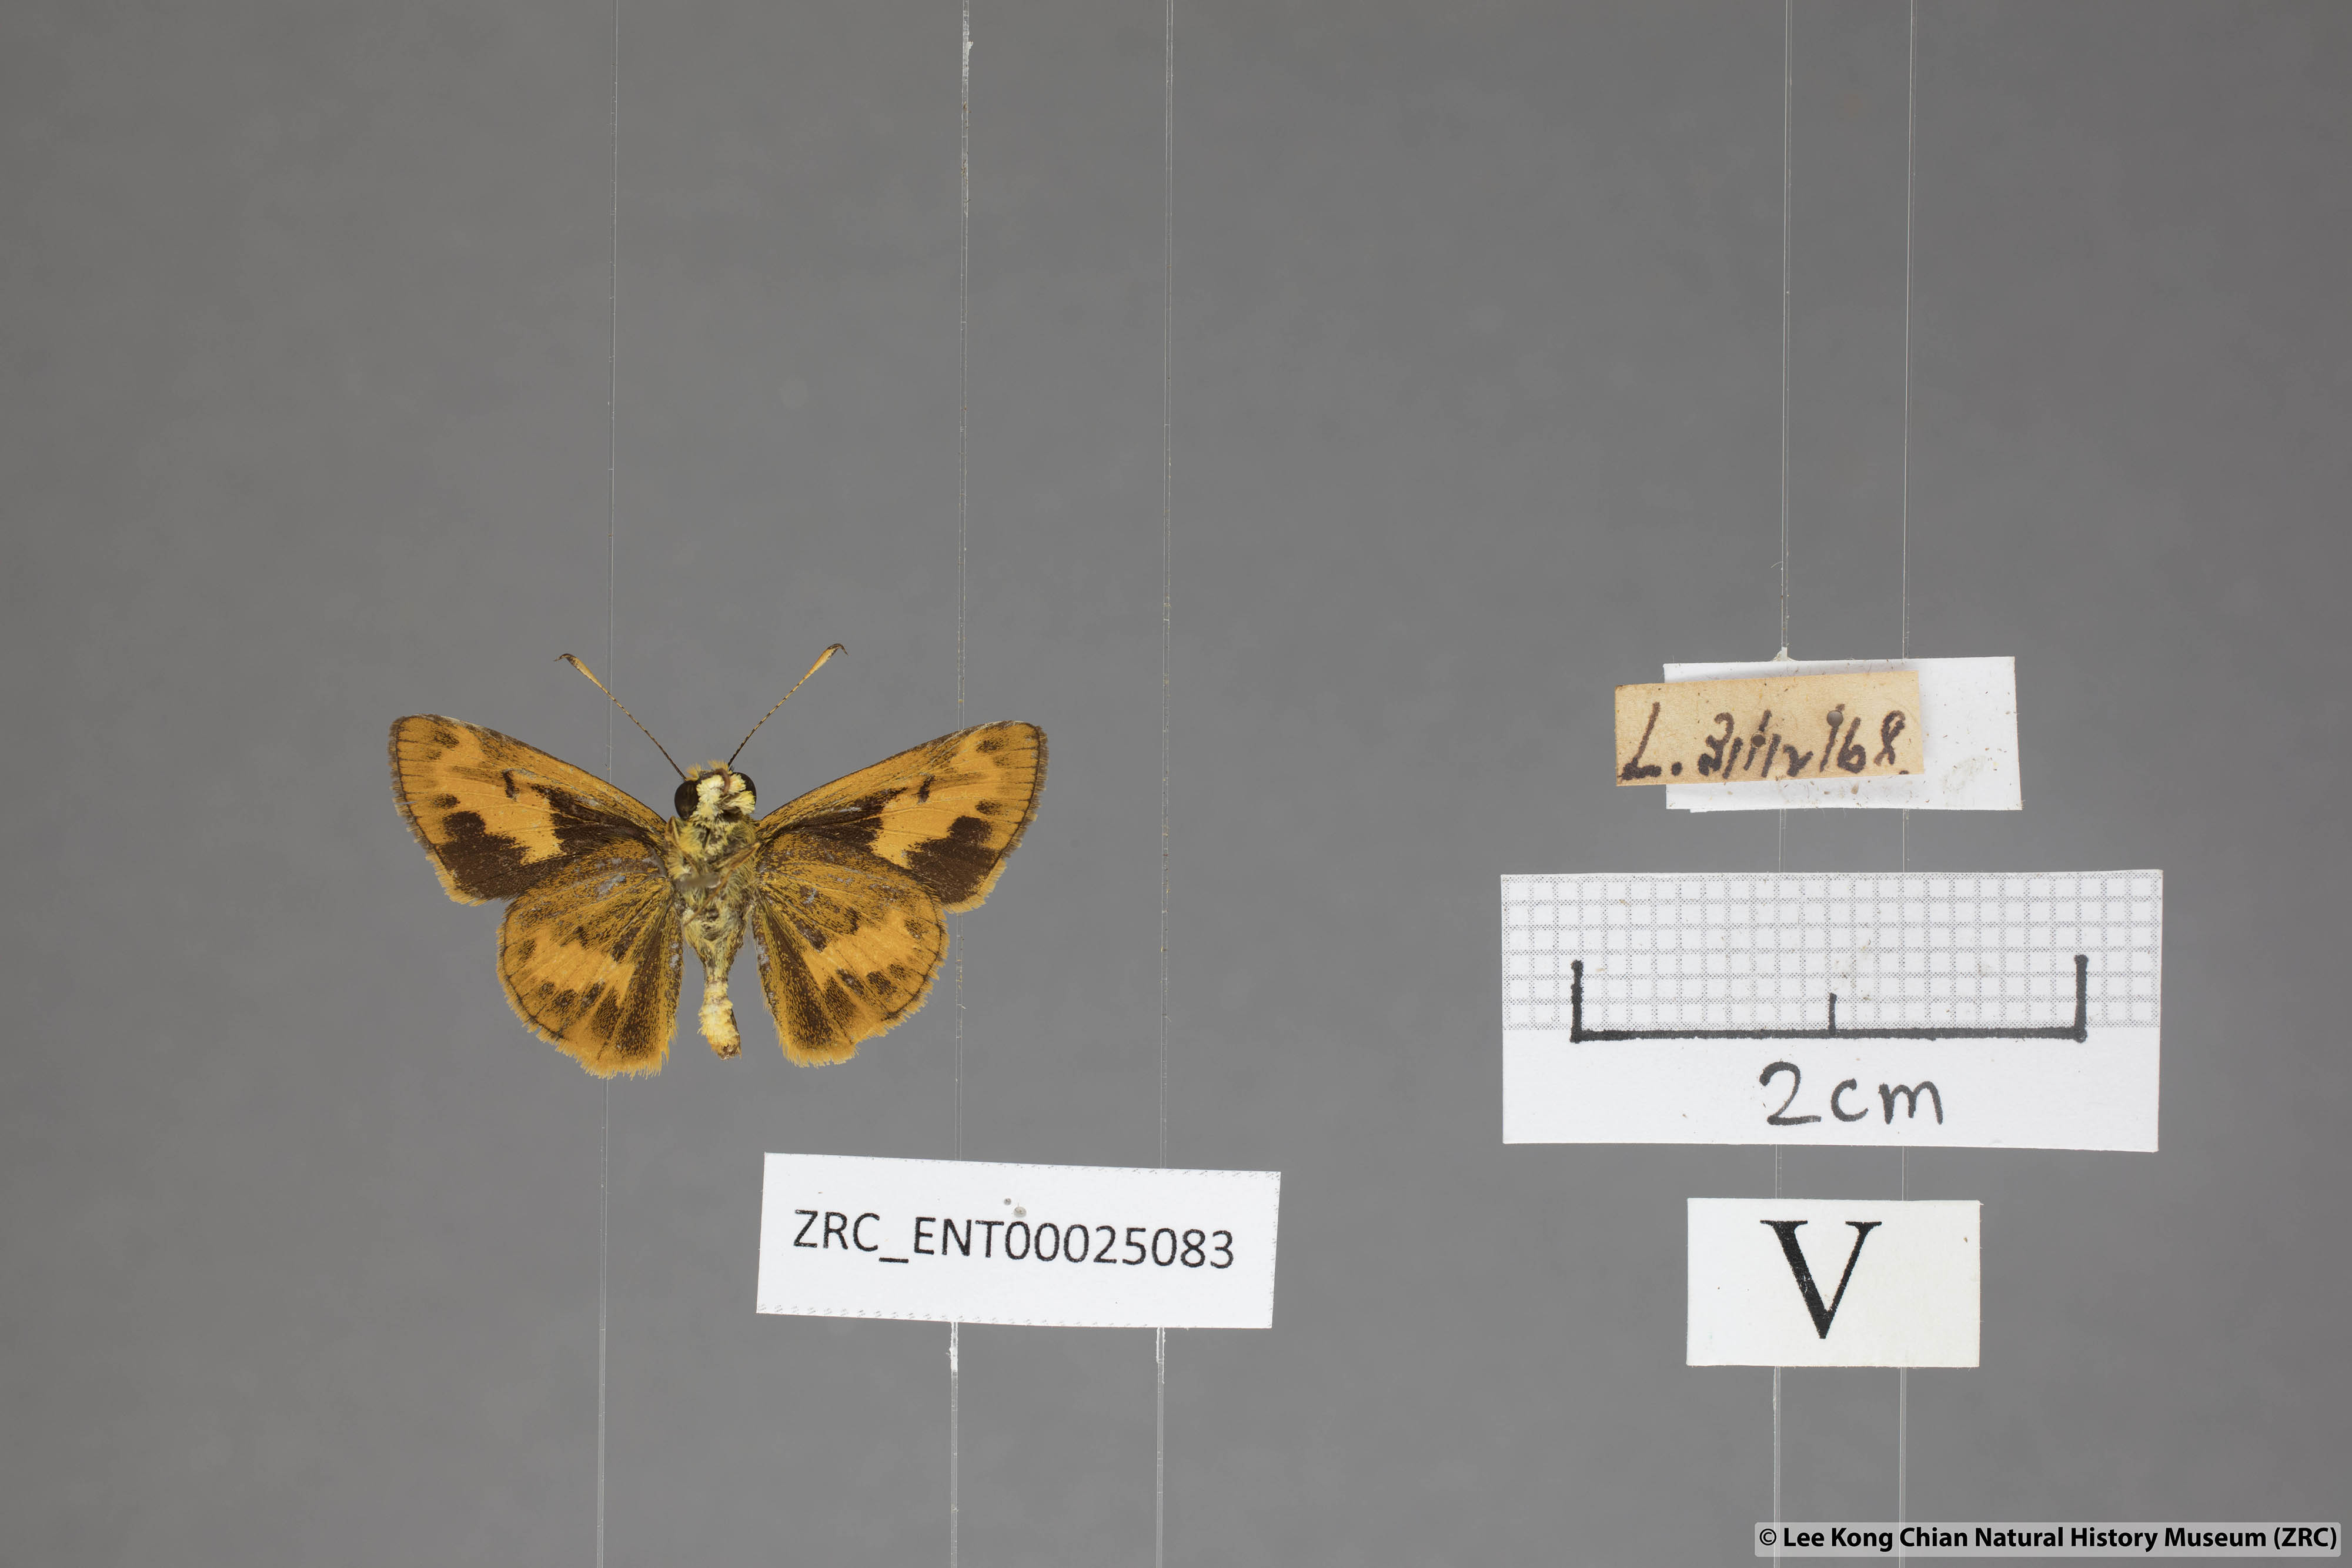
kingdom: Animalia
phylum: Arthropoda
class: Insecta
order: Lepidoptera
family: Hesperiidae
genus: Oriens
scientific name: Oriens gola
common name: Common dartlet
